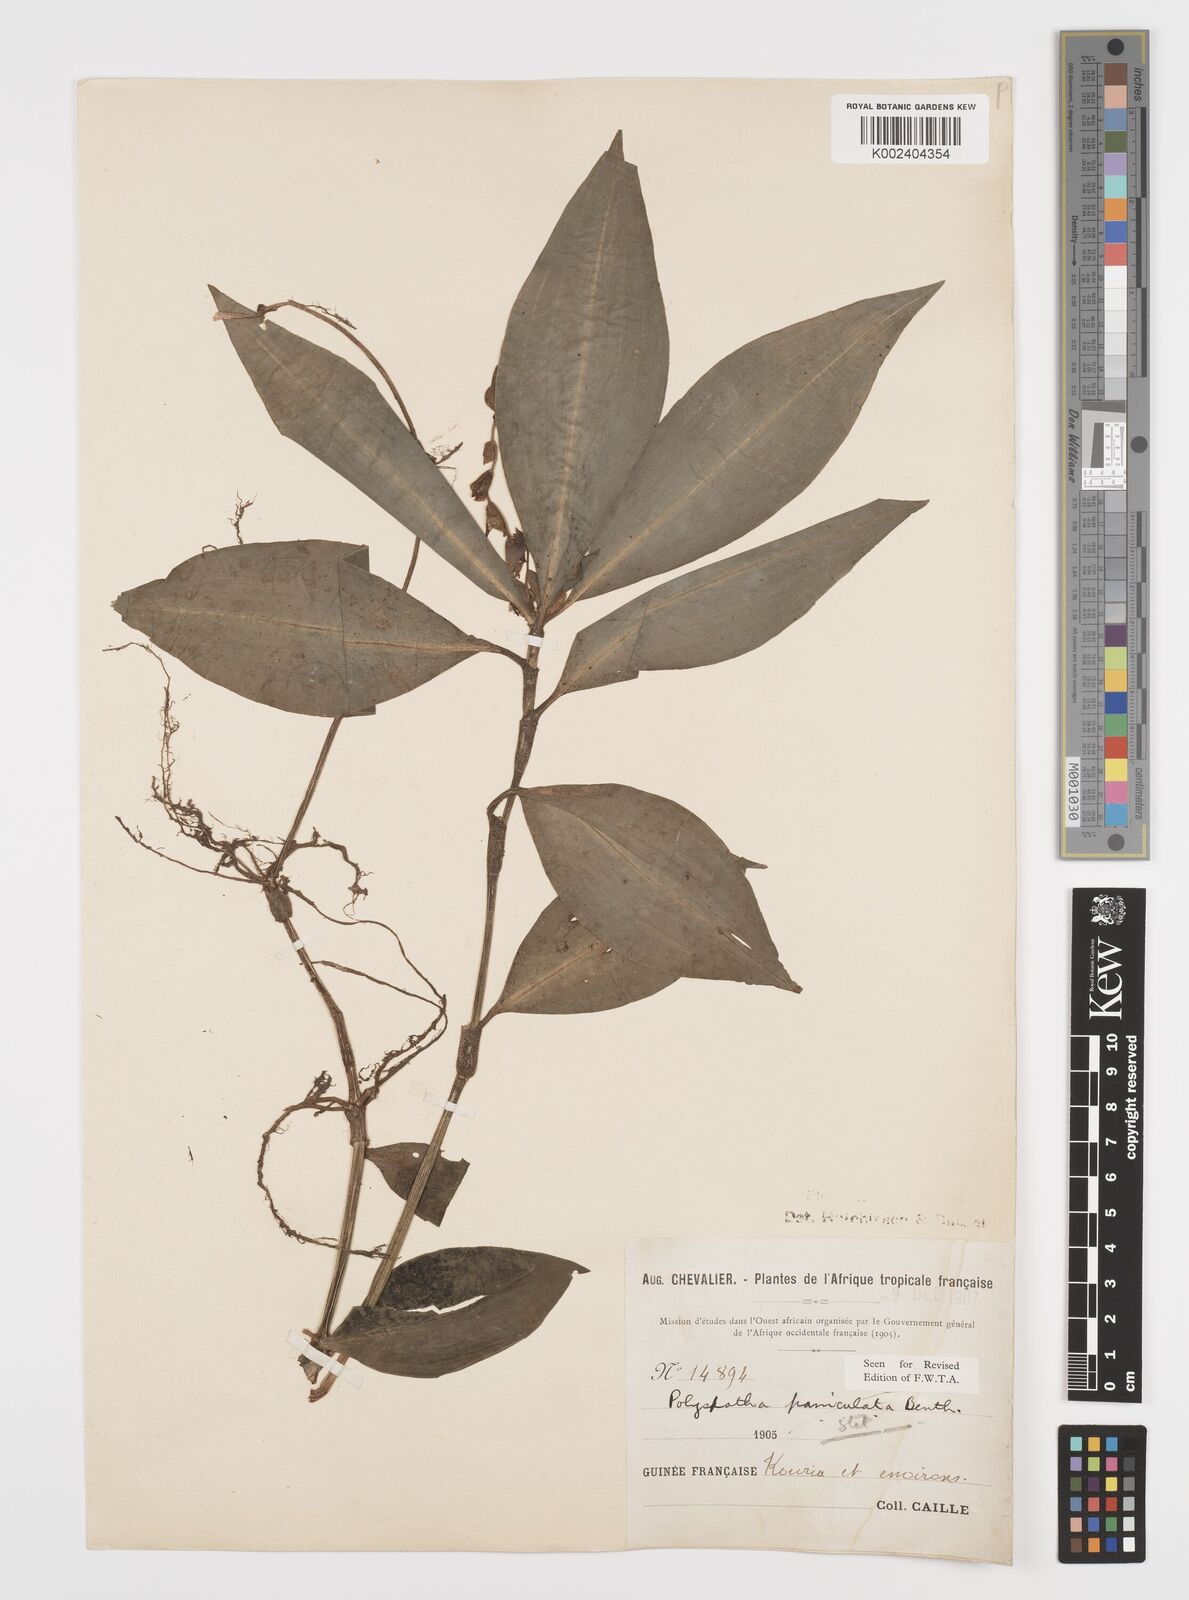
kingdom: Plantae
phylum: Tracheophyta
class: Liliopsida
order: Commelinales
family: Commelinaceae
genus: Polyspatha
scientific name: Polyspatha paniculata
